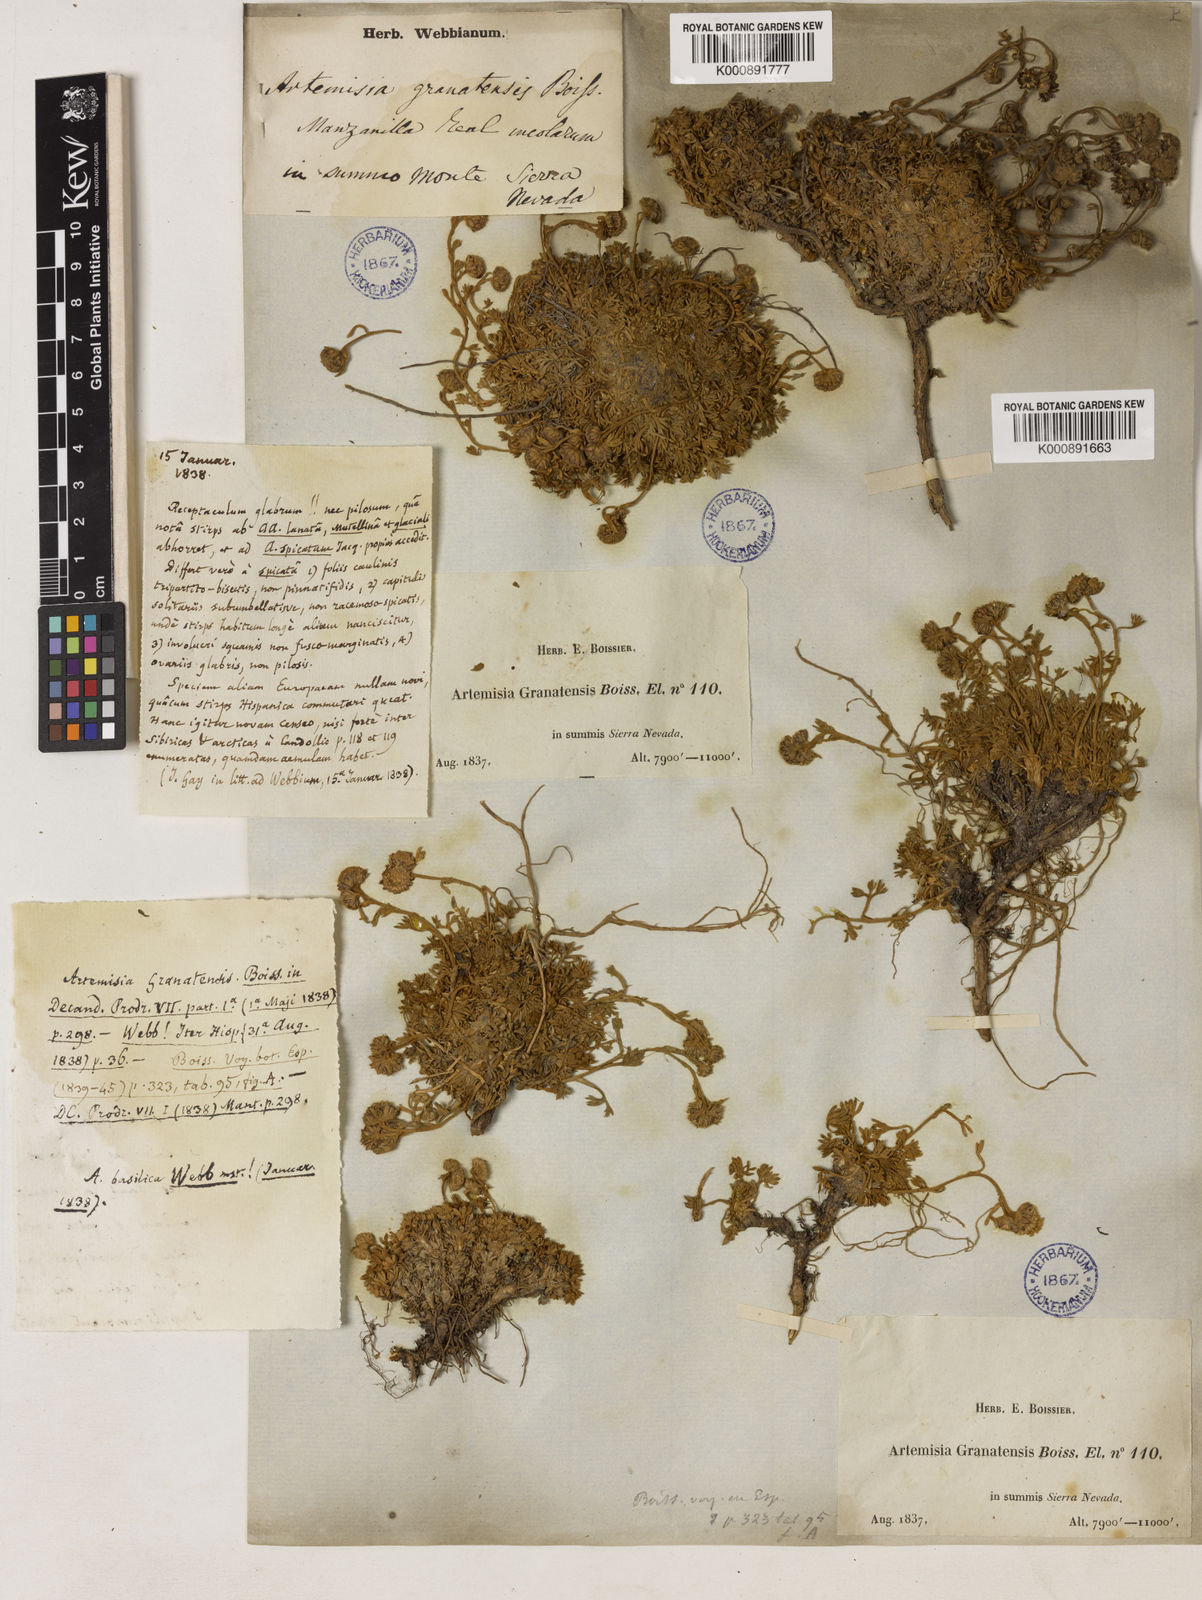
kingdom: Plantae
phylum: Tracheophyta
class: Magnoliopsida
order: Asterales
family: Asteraceae
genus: Artemisia
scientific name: Artemisia granatensis
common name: Royal chamomile
